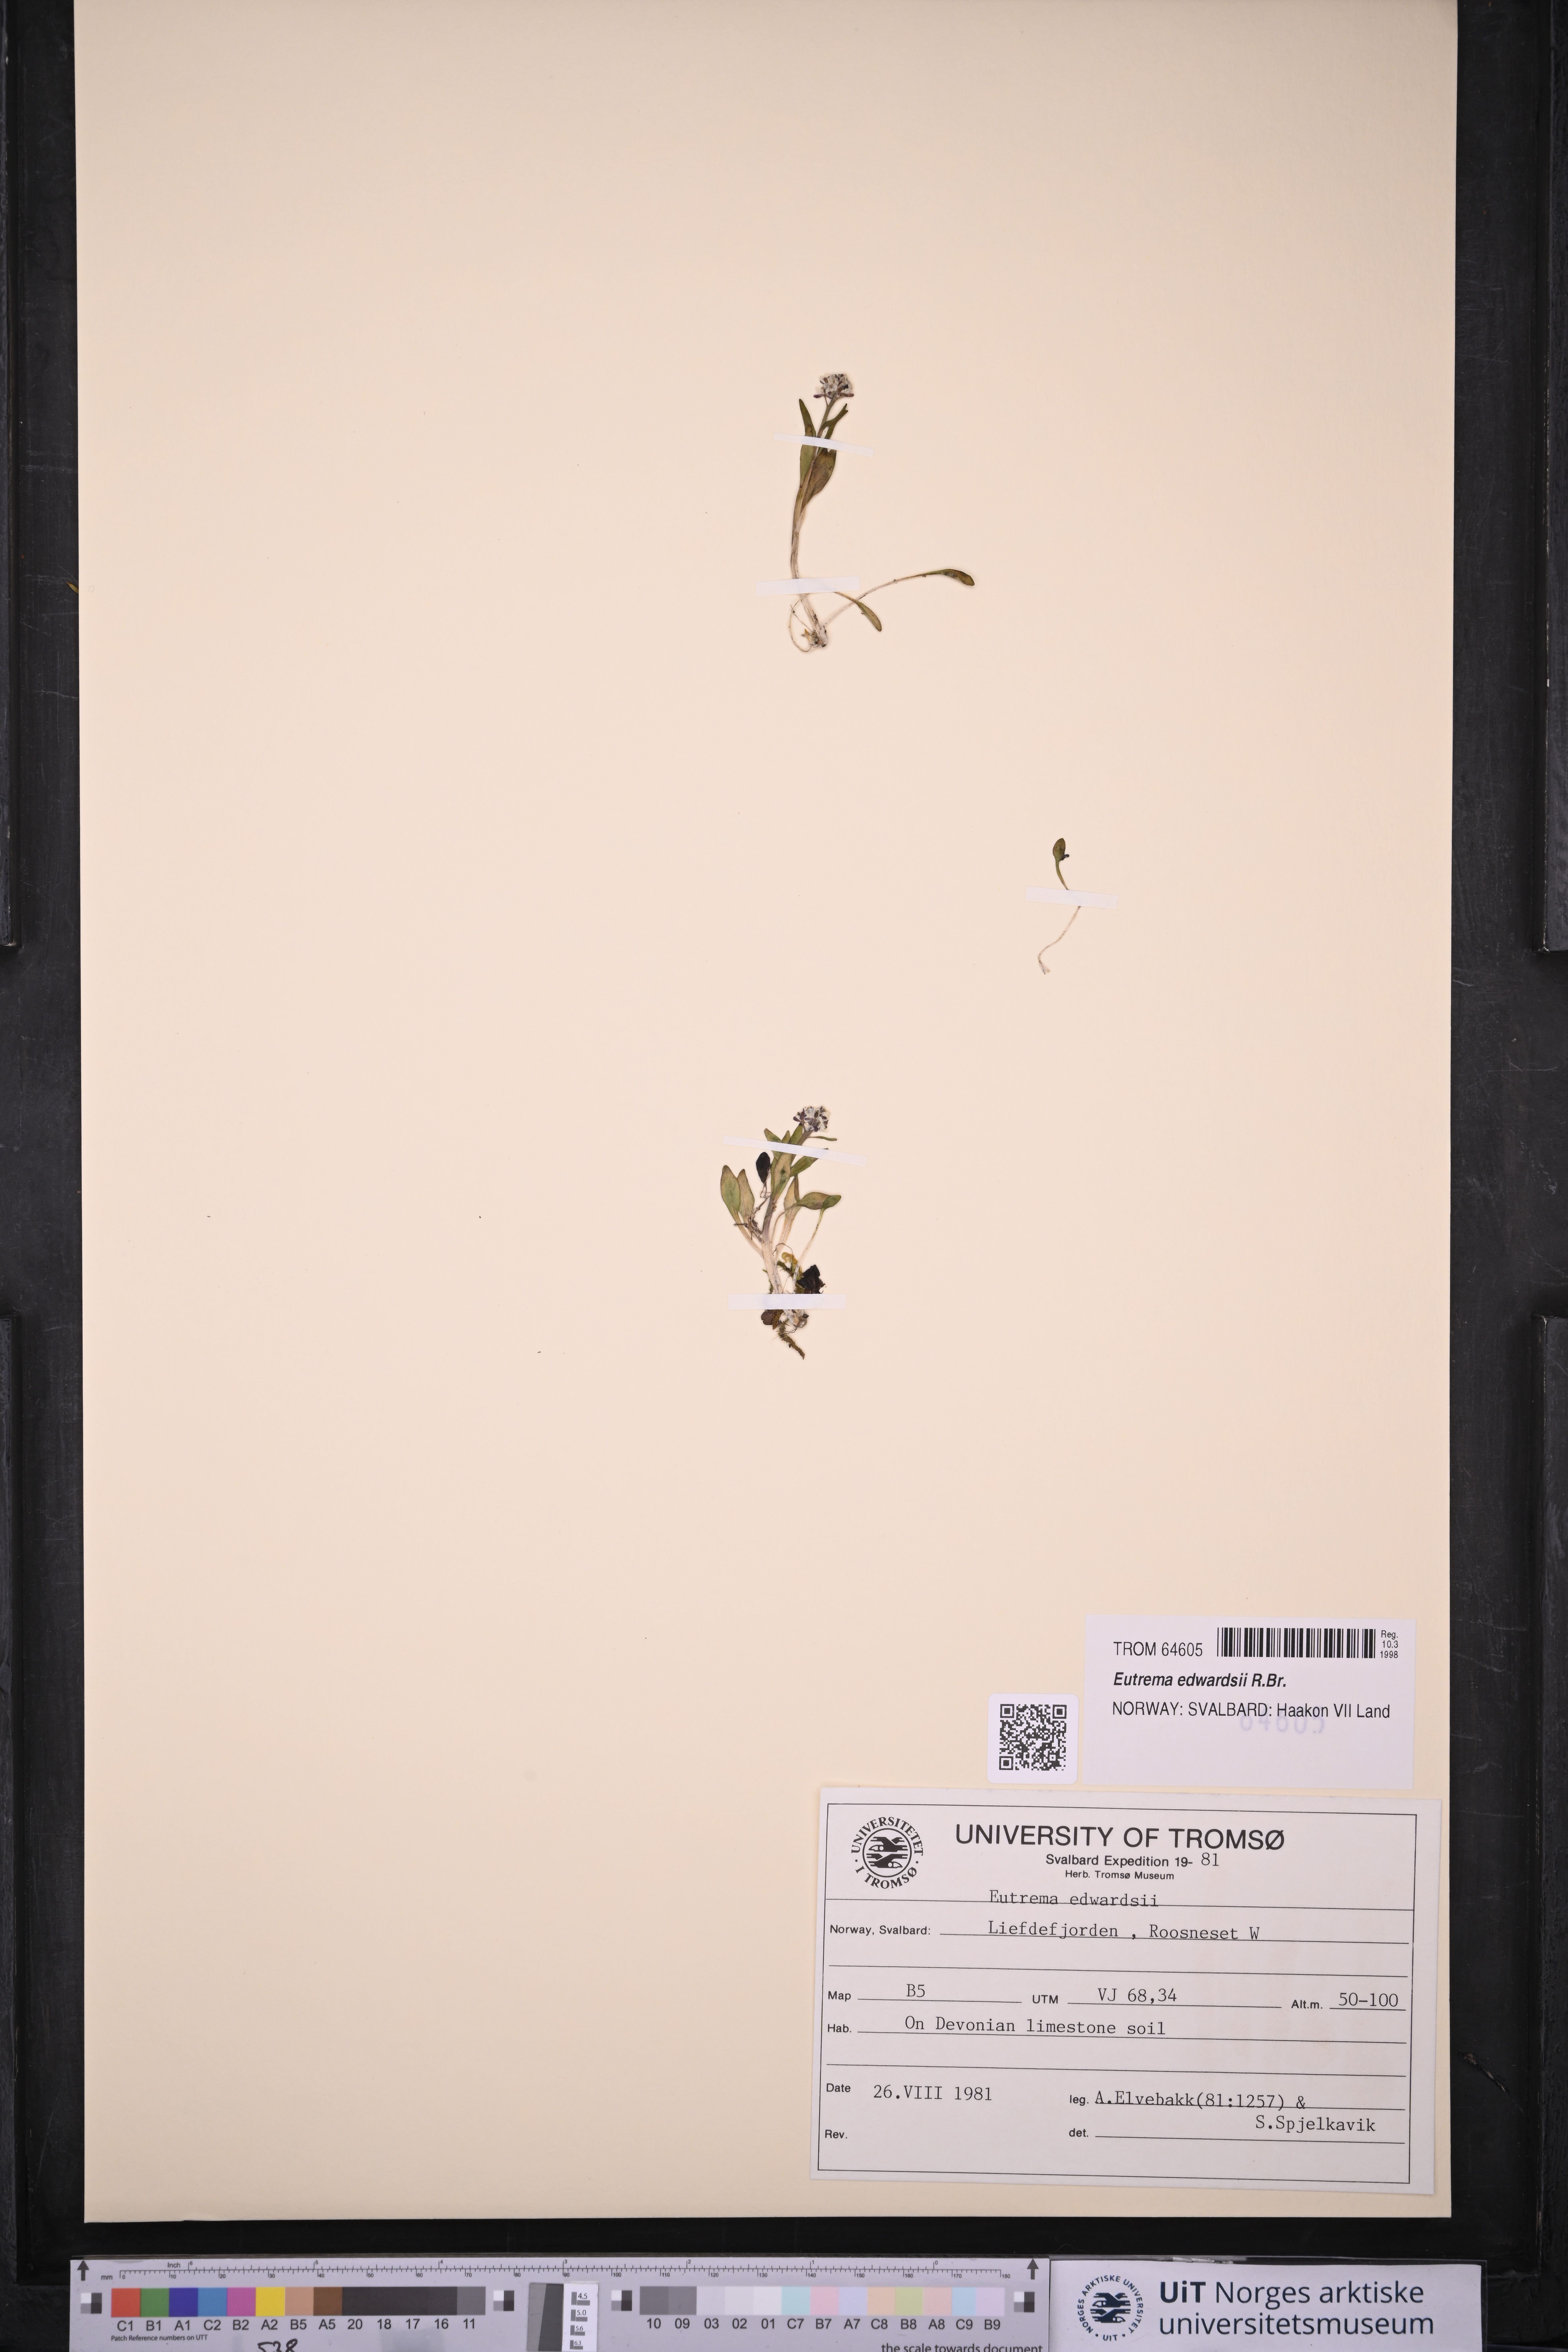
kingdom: Plantae
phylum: Tracheophyta
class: Magnoliopsida
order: Brassicales
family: Brassicaceae
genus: Eutrema
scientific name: Eutrema edwardsii
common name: Penland alpine fen mustard
